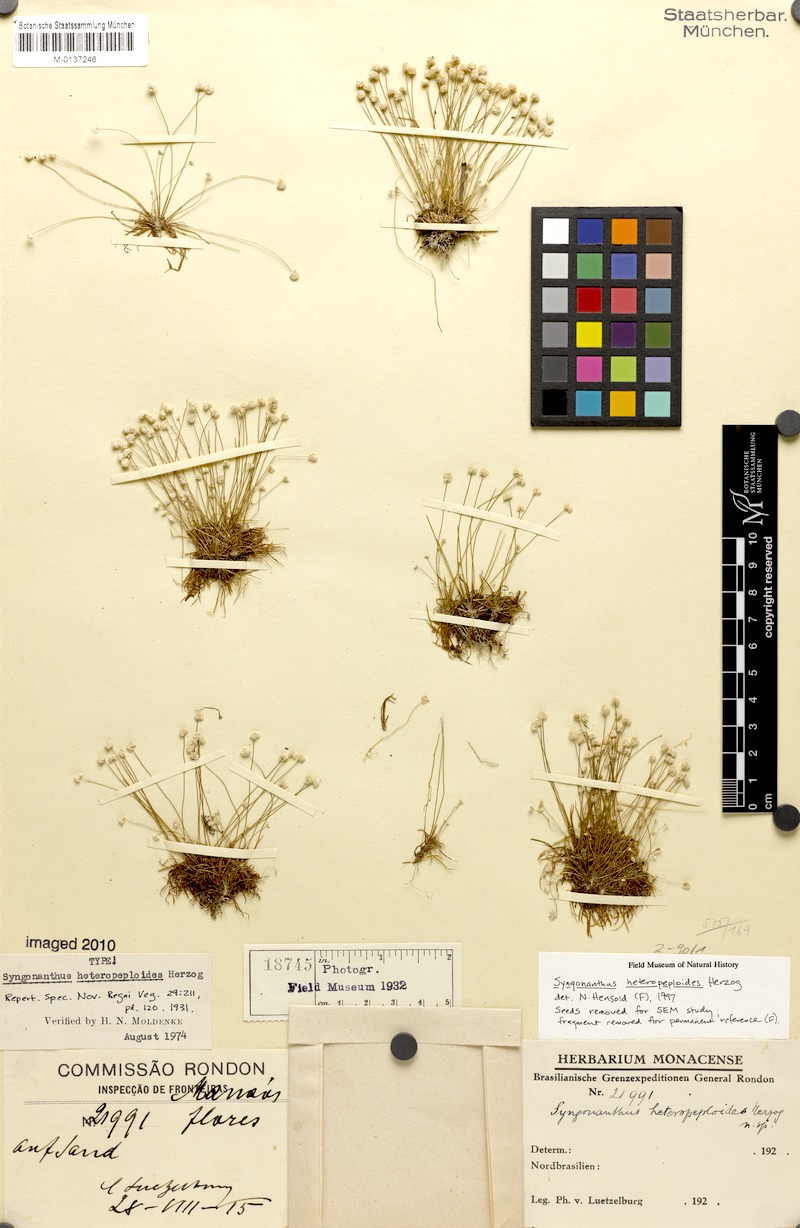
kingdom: Plantae
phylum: Tracheophyta
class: Liliopsida
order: Poales
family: Eriocaulaceae
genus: Syngonanthus
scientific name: Syngonanthus heteropeploides
